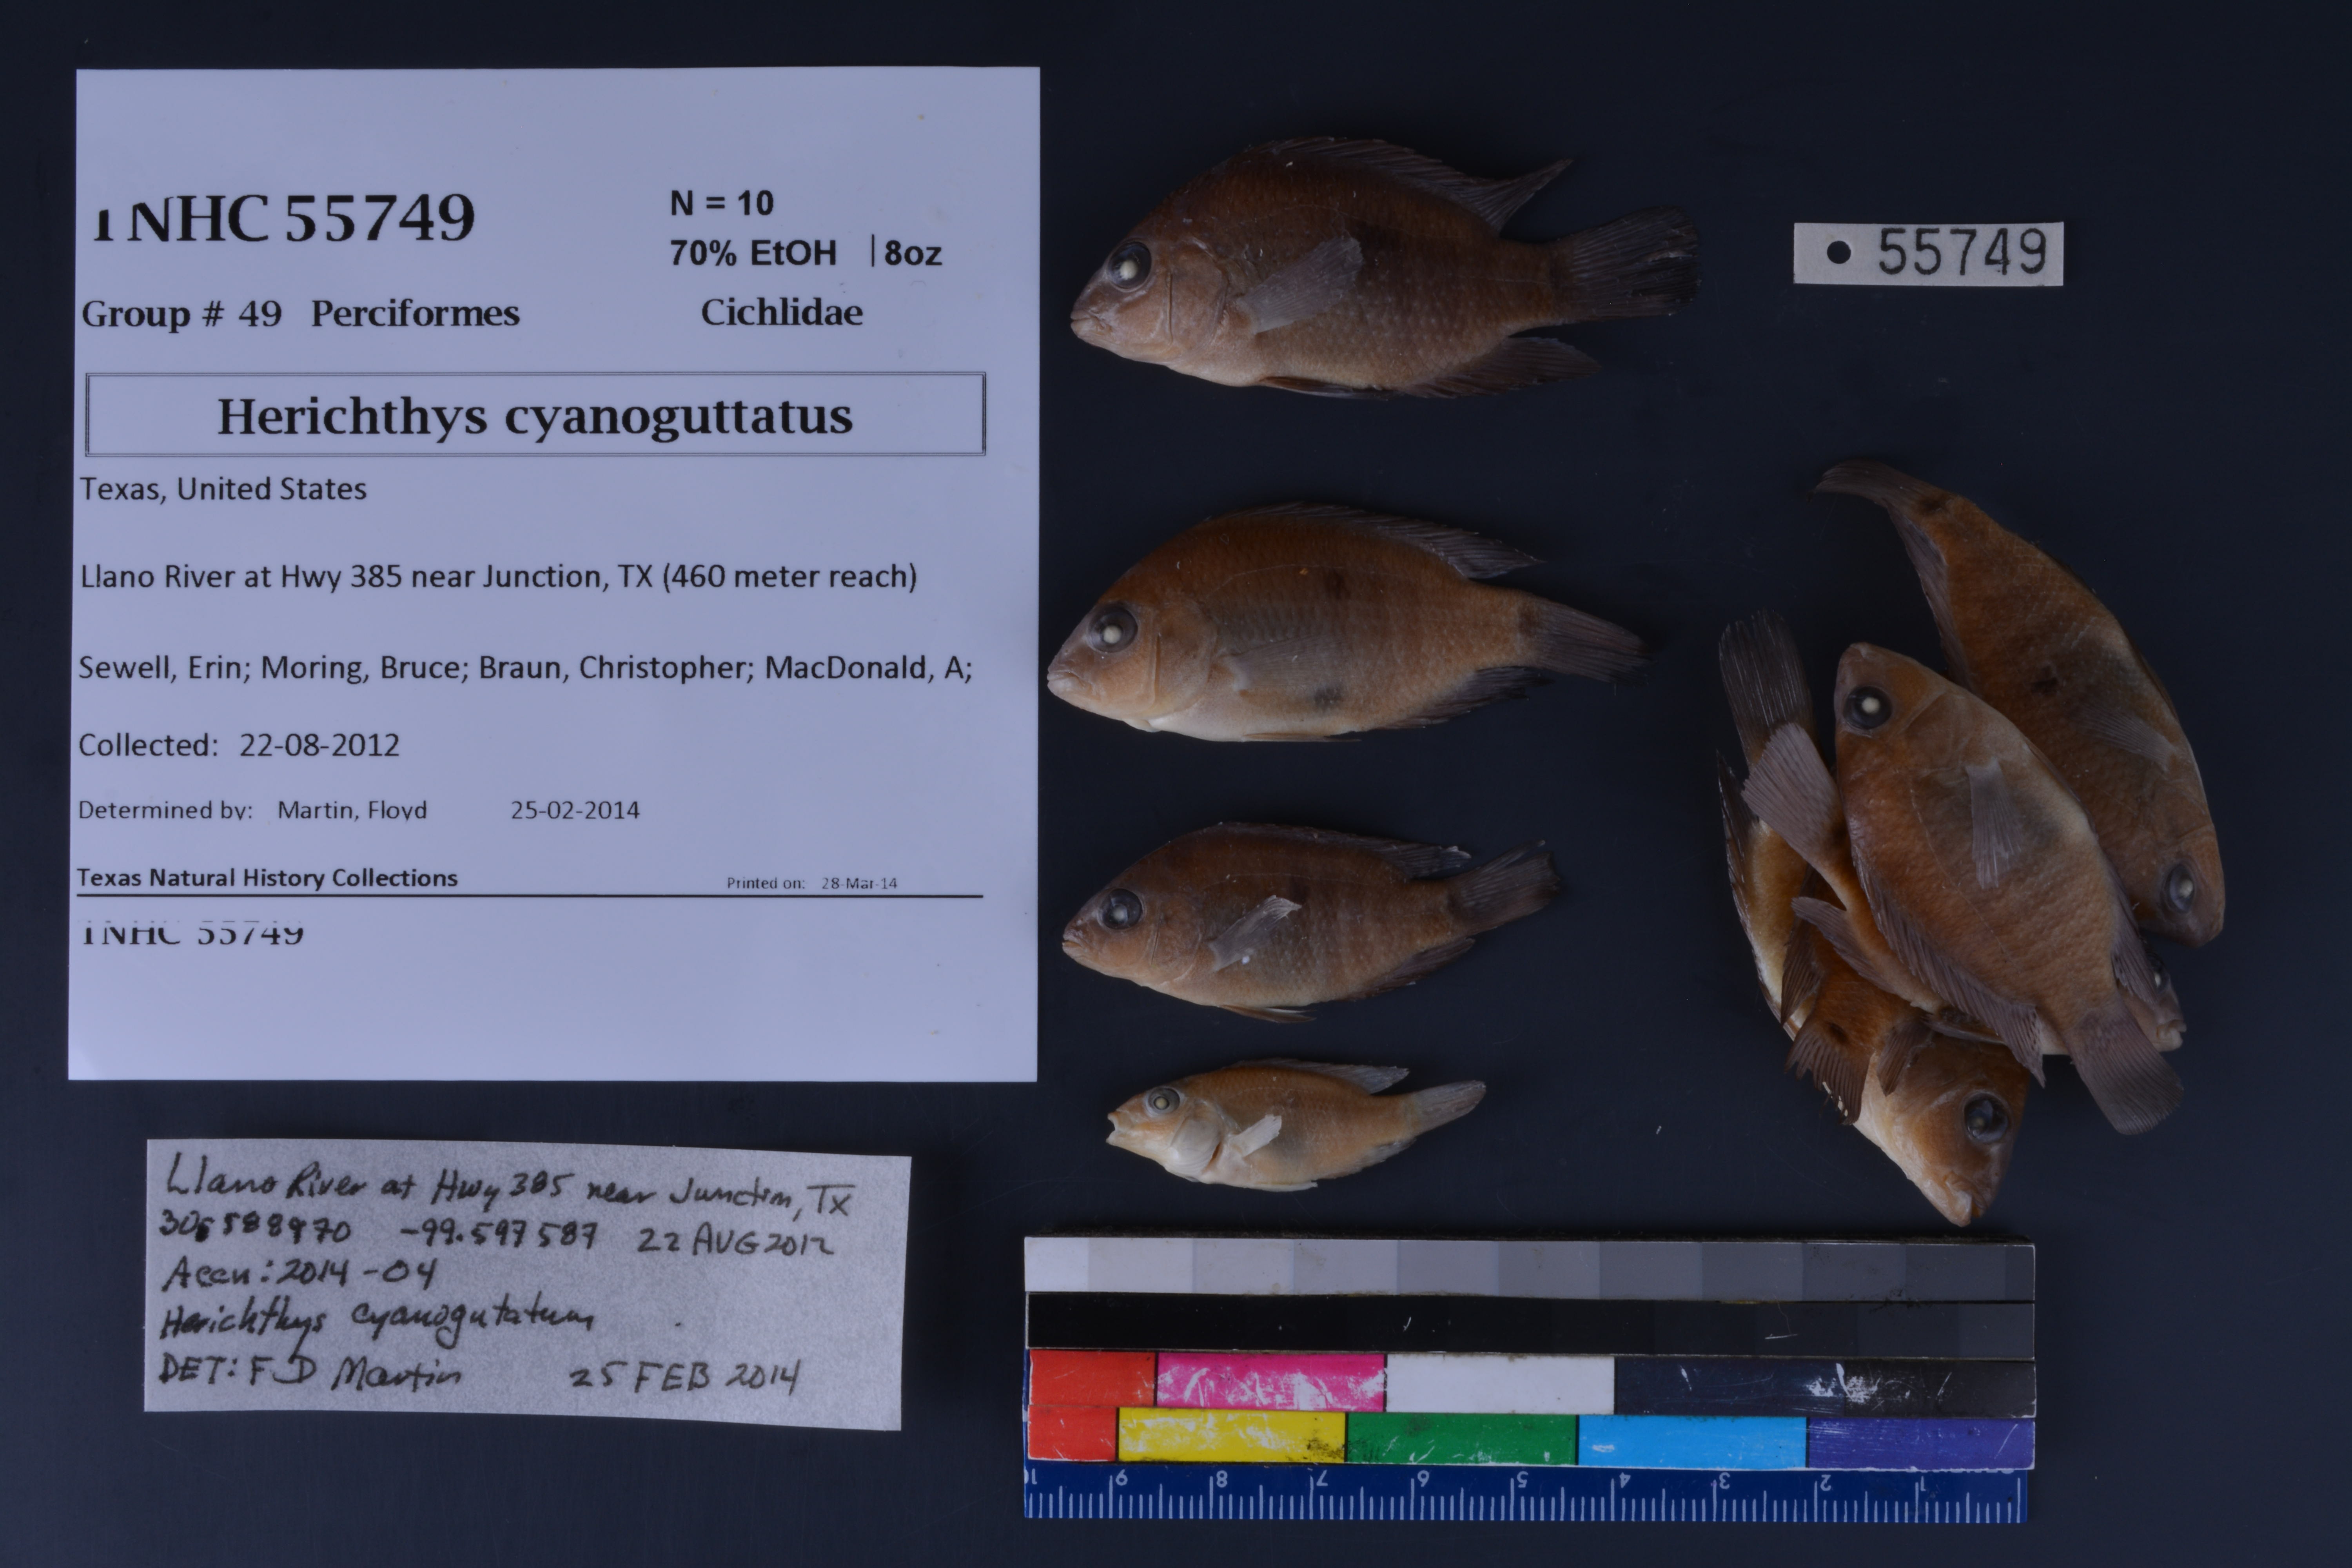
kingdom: Animalia
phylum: Chordata
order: Perciformes
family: Cichlidae
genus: Herichthys
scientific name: Herichthys cyanoguttatus
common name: Rio grande cichlid
